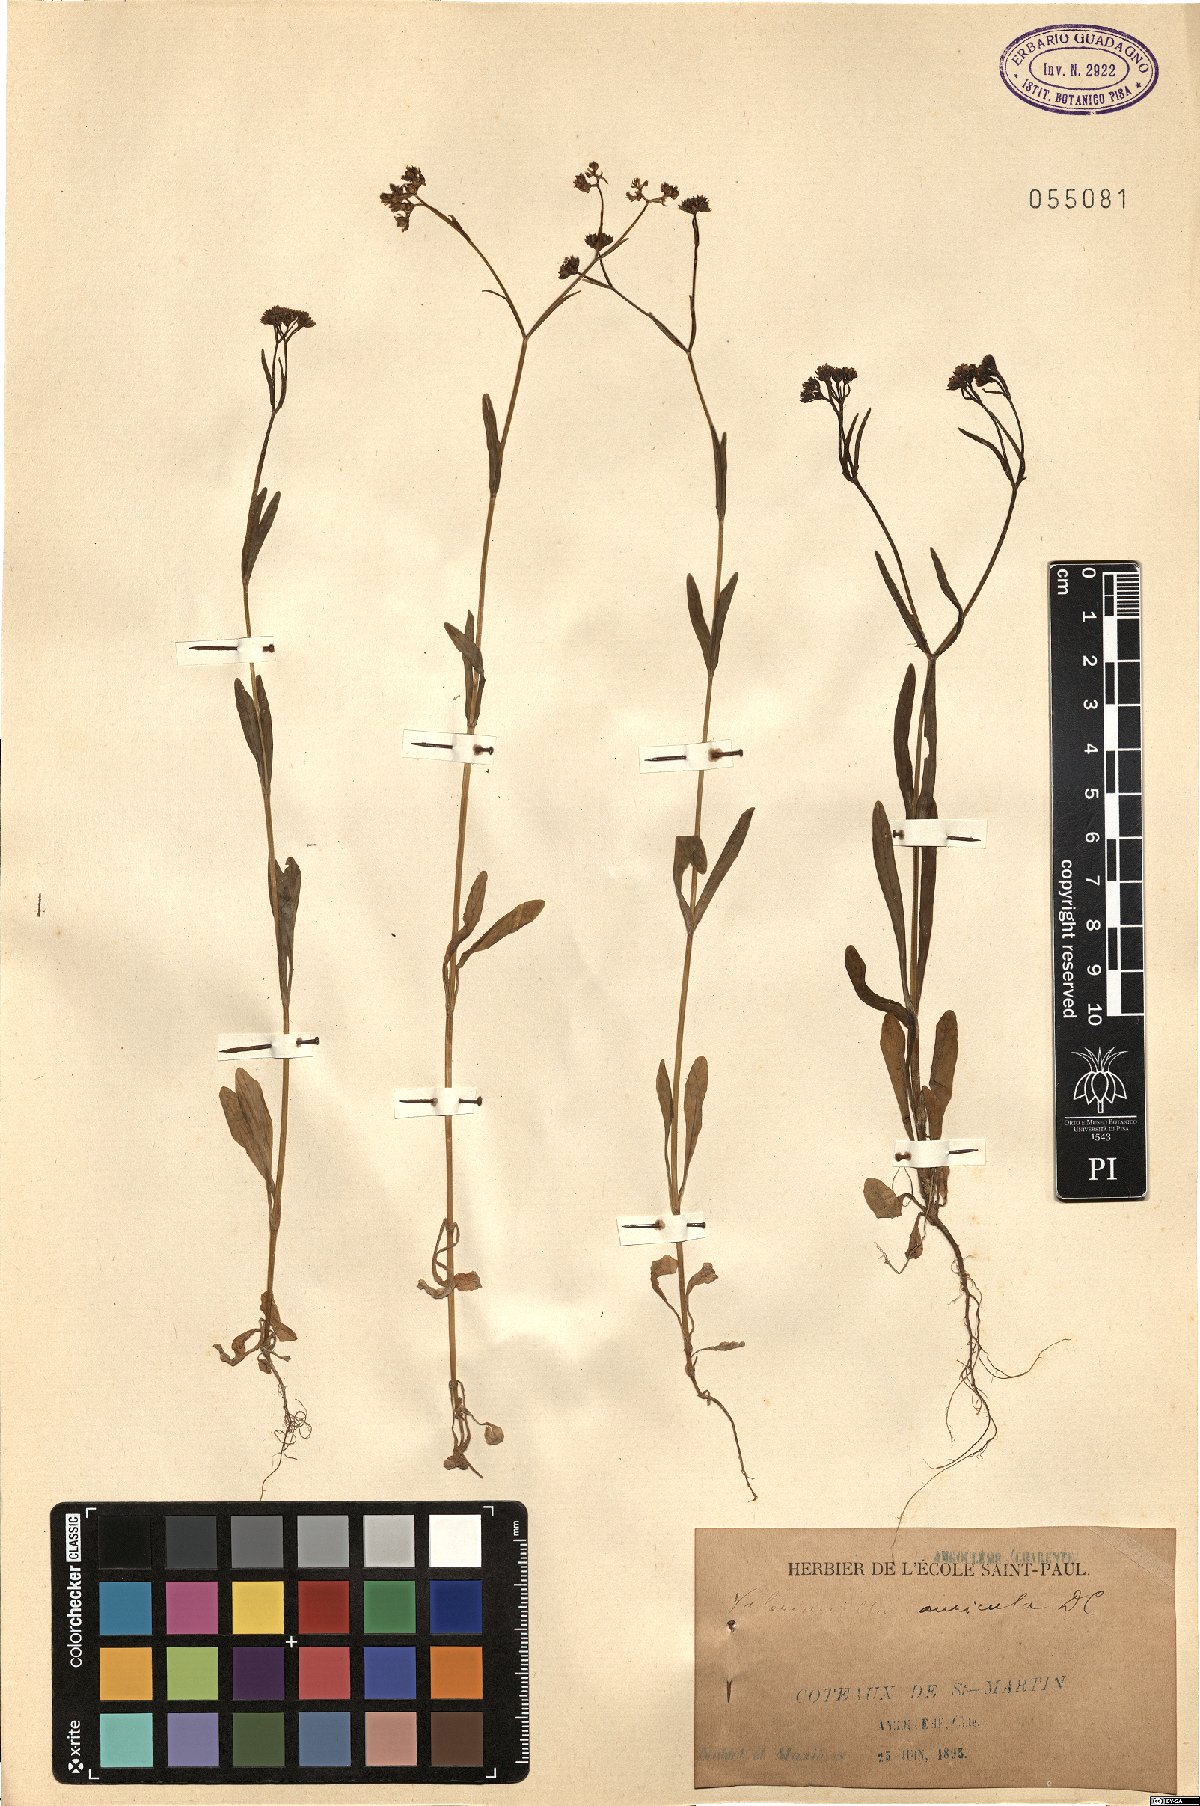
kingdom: Plantae
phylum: Tracheophyta
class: Magnoliopsida
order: Dipsacales
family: Caprifoliaceae
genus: Valerianella
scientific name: Valerianella rimosa
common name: Broad-fruited cornsalad
